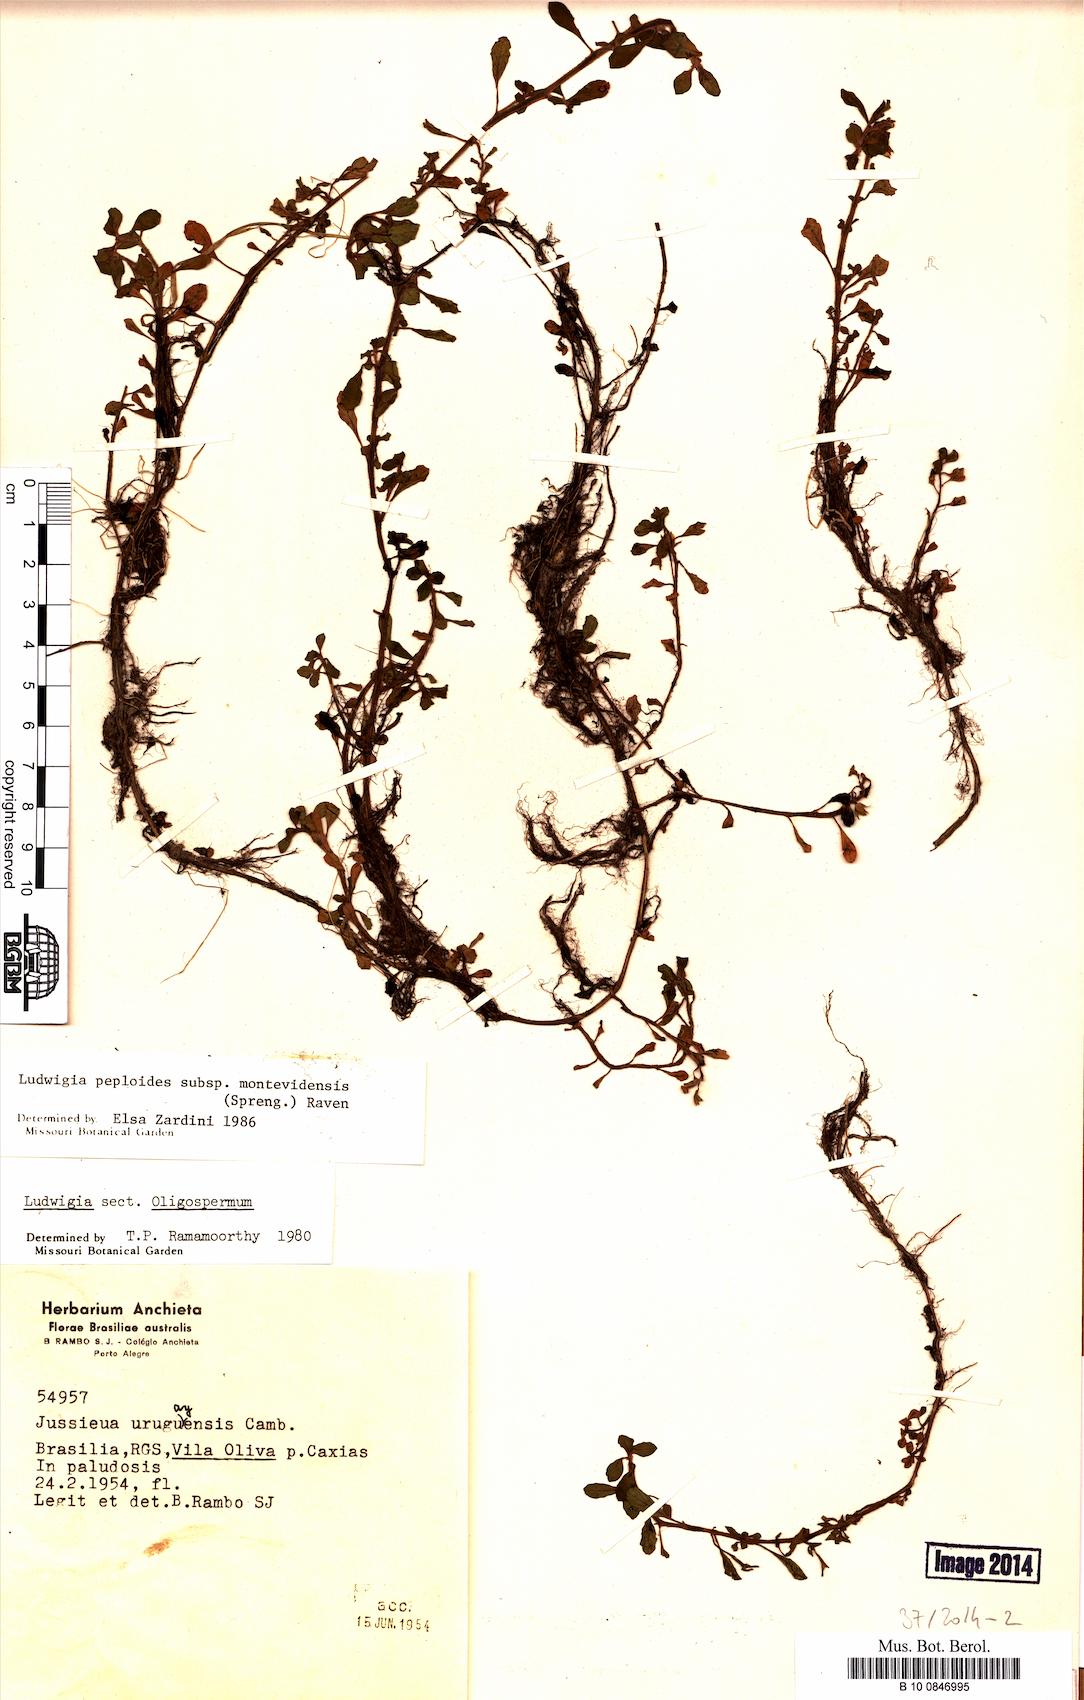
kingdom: Plantae
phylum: Tracheophyta
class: Magnoliopsida
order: Myrtales
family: Onagraceae
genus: Ludwigia
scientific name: Ludwigia peploides
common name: Floating primrose-willow
